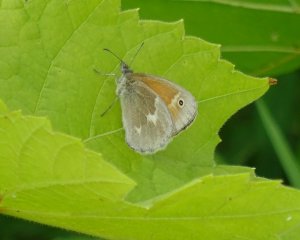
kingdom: Animalia
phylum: Arthropoda
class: Insecta
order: Lepidoptera
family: Nymphalidae
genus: Coenonympha
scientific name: Coenonympha tullia
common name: Large Heath
